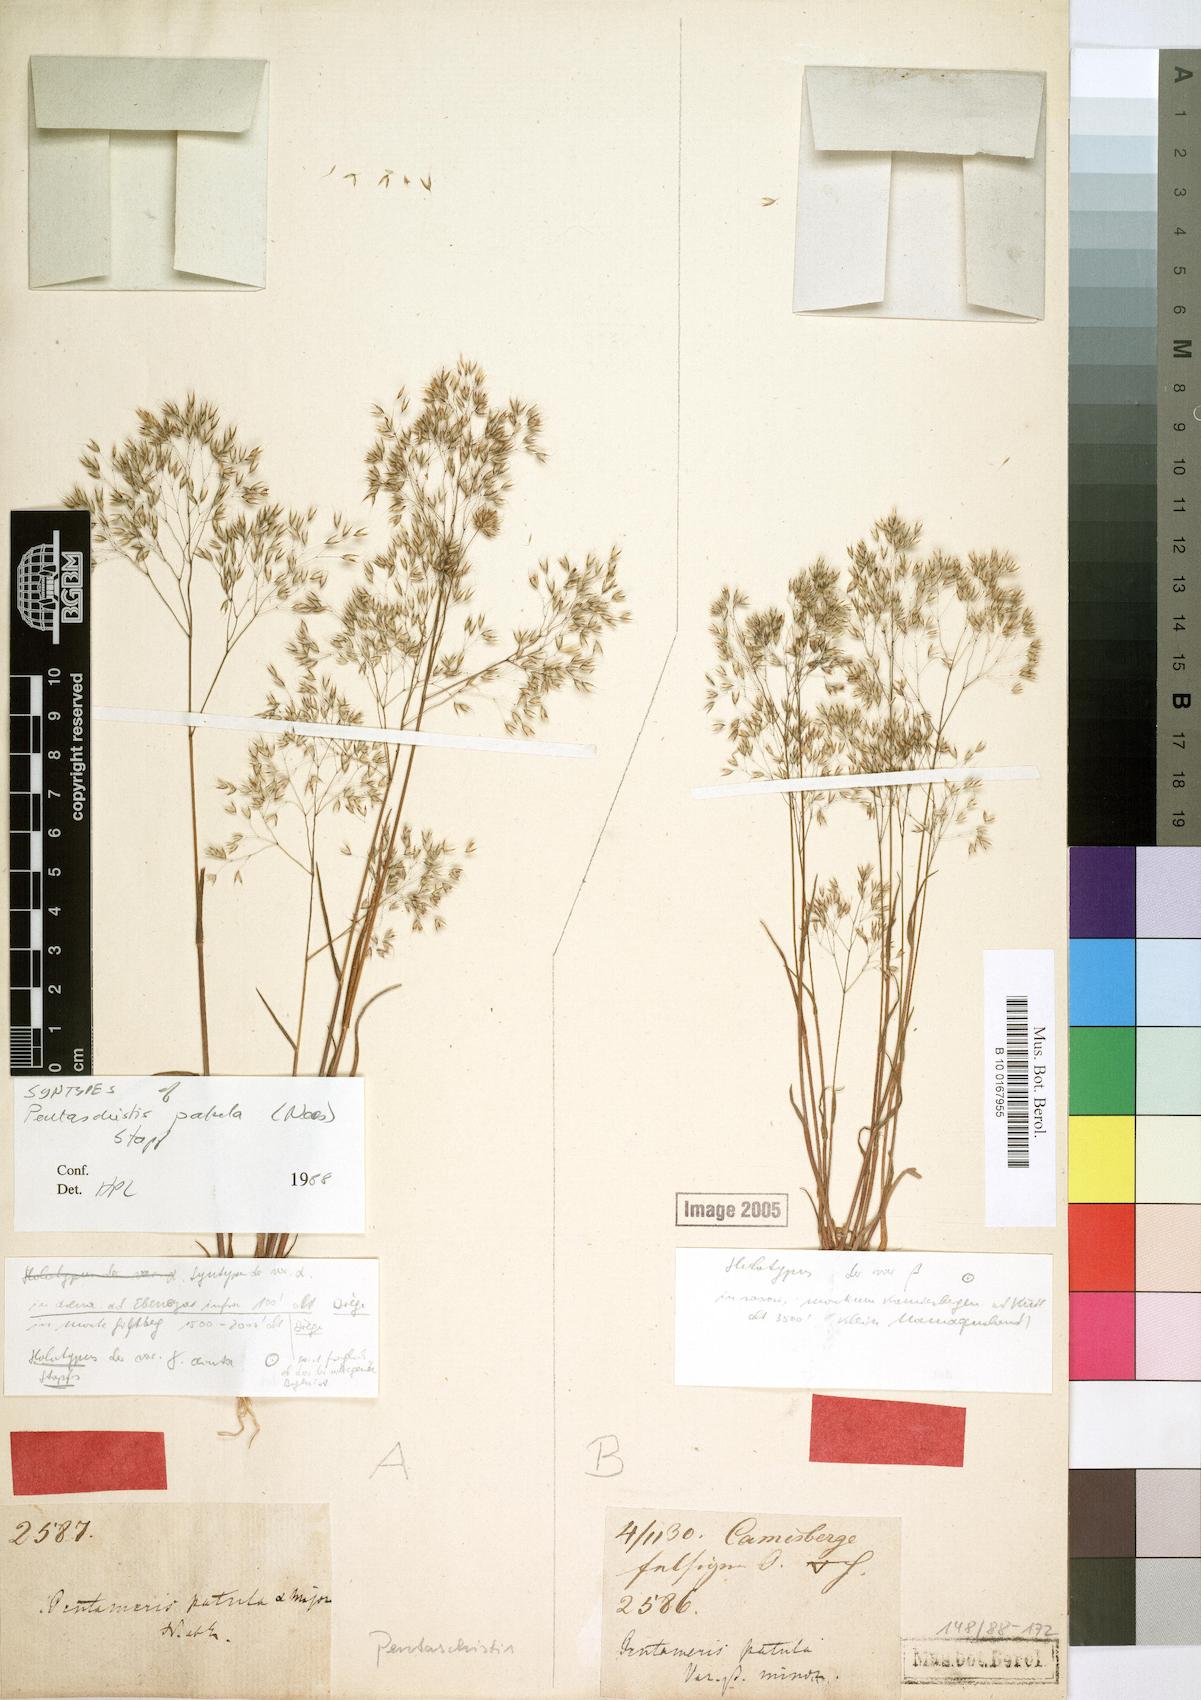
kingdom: Plantae
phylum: Tracheophyta
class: Liliopsida
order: Poales
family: Poaceae
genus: Pentameris
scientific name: Pentameris patula
